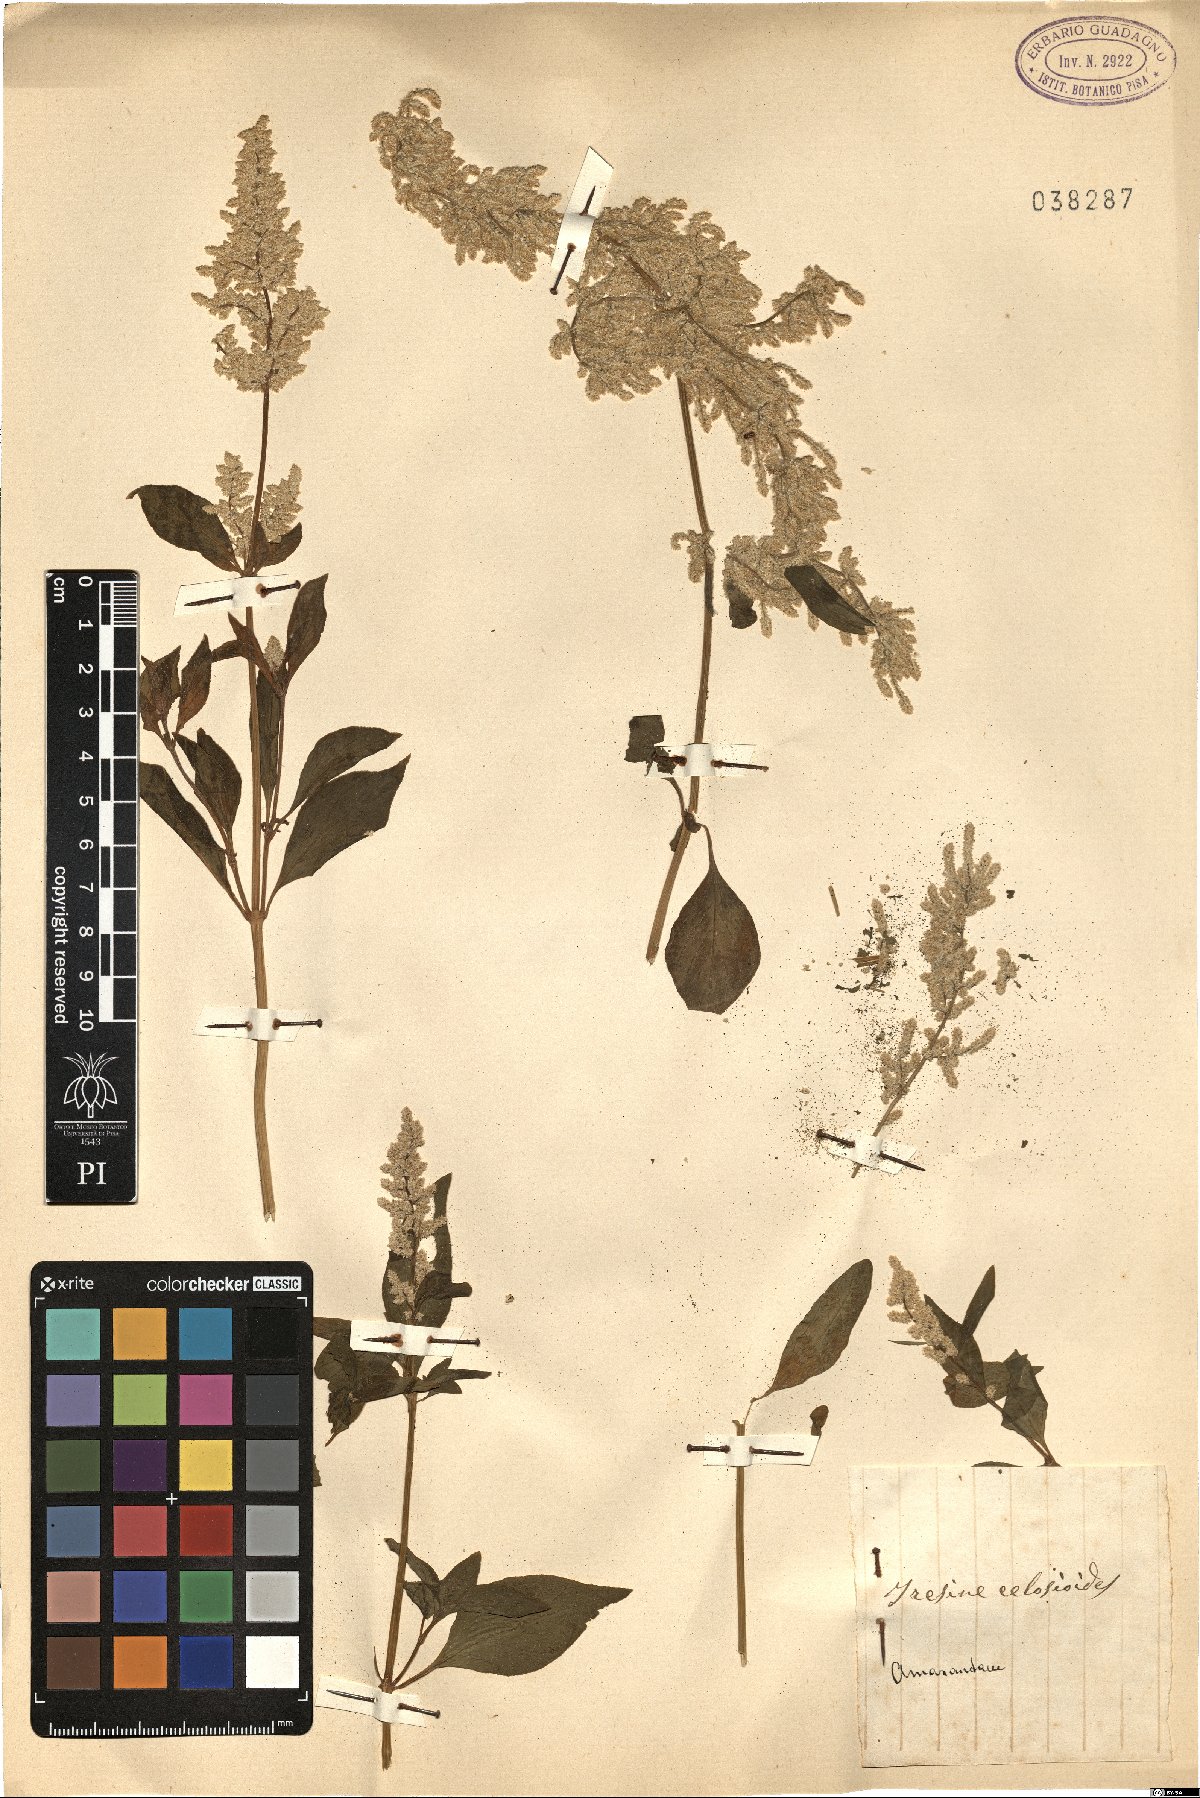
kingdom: Plantae
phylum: Tracheophyta
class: Magnoliopsida
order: Caryophyllales
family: Amaranthaceae
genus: Iresine
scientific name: Iresine rhizomatosa
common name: Juda's-bush
